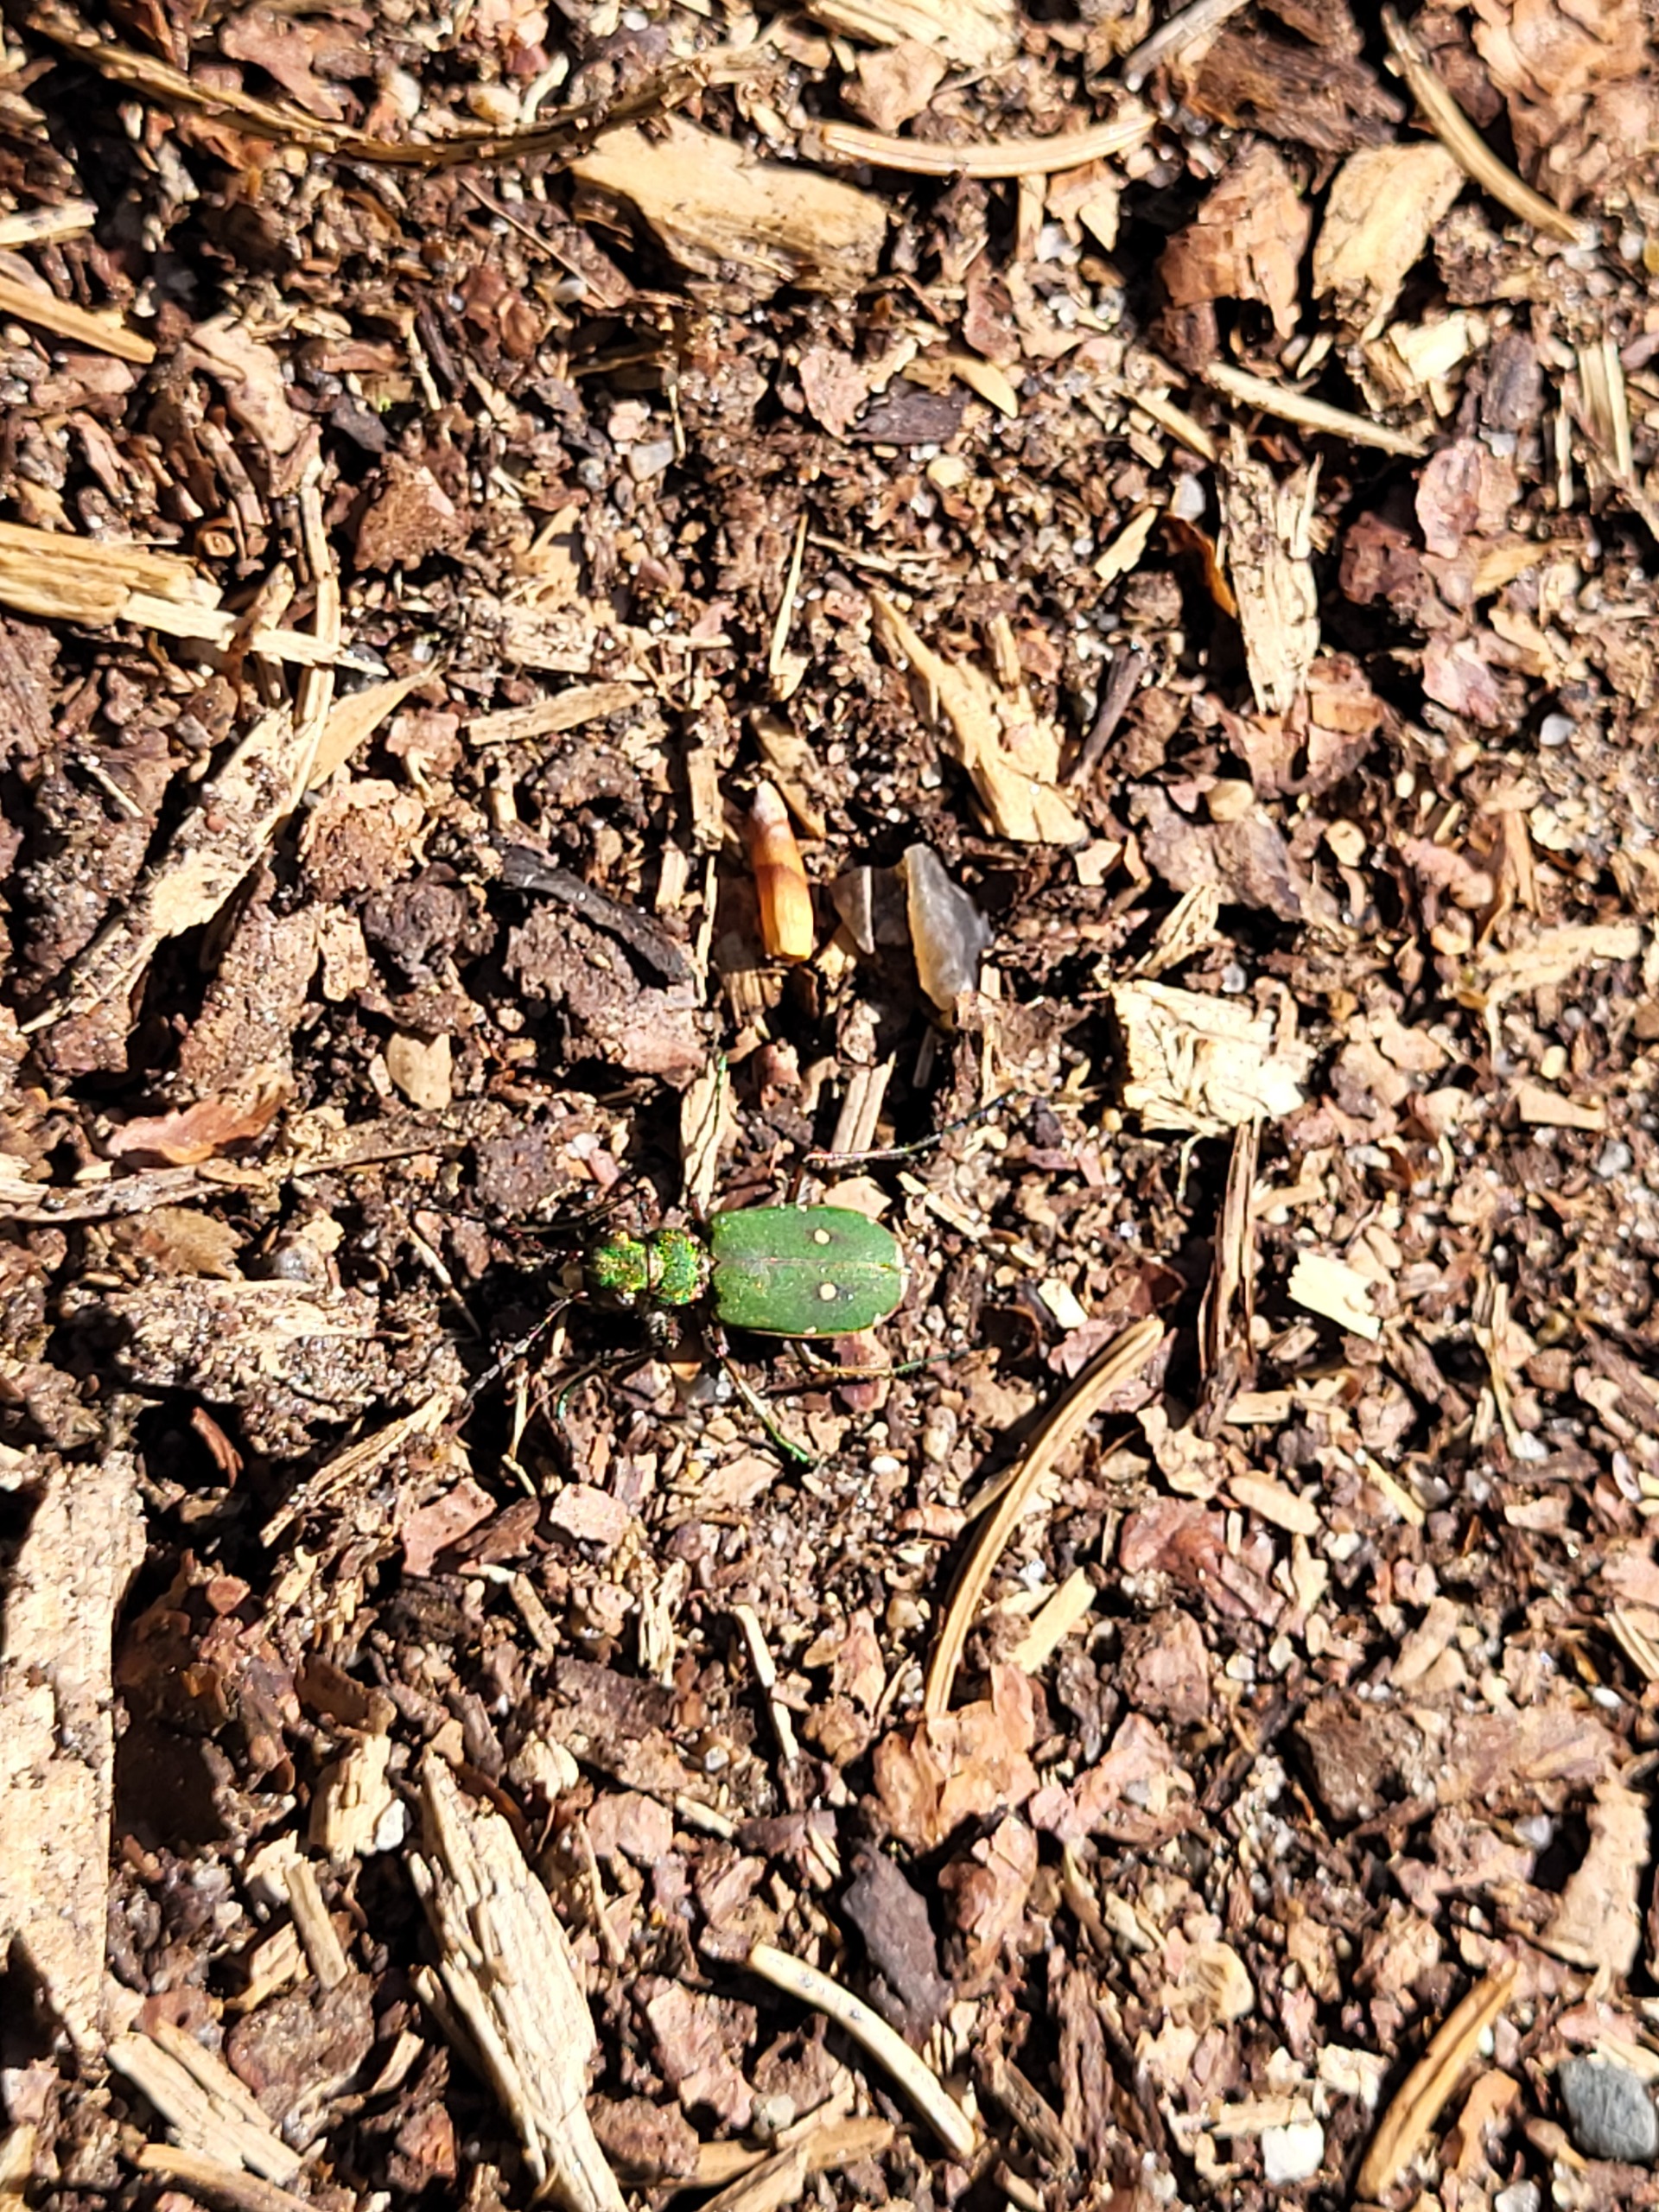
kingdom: Animalia
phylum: Arthropoda
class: Insecta
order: Coleoptera
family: Carabidae
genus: Cicindela
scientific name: Cicindela campestris
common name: Grøn sandspringer
